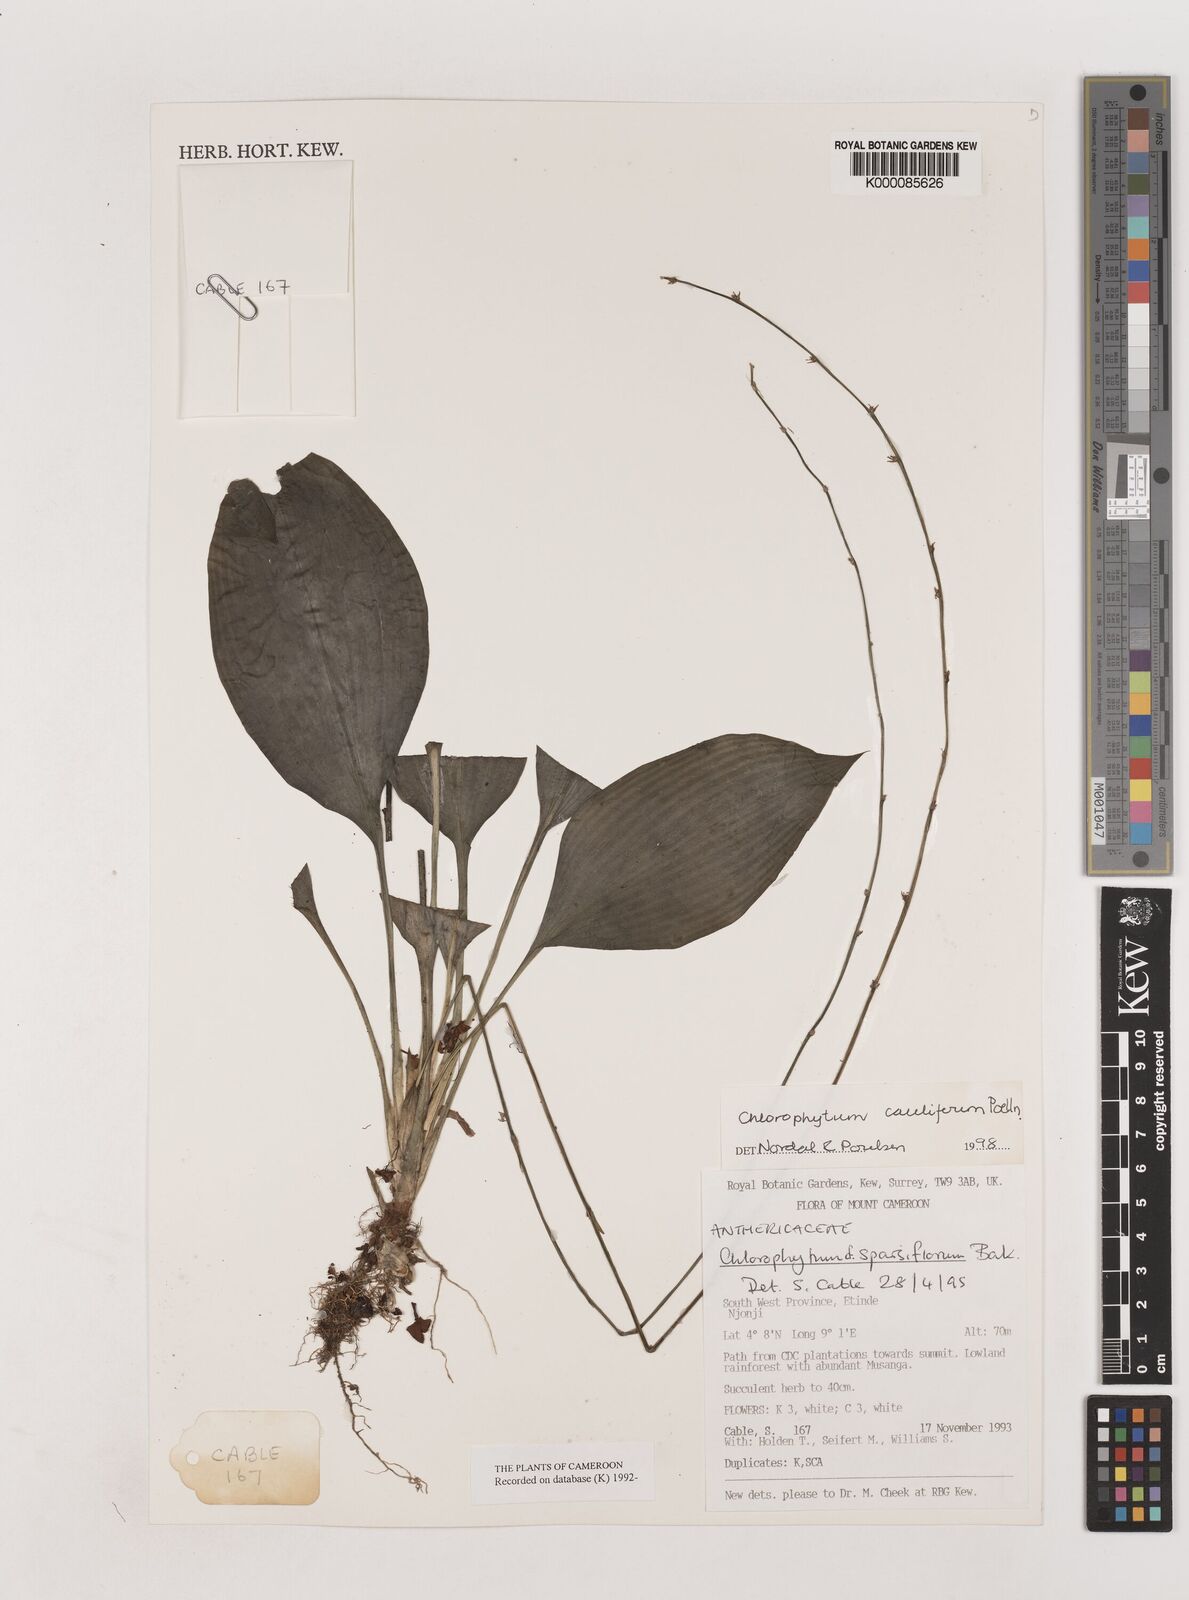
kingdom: Plantae
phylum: Tracheophyta
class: Liliopsida
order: Asparagales
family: Asparagaceae
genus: Chlorophytum
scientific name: Chlorophytum sparsiflorum
